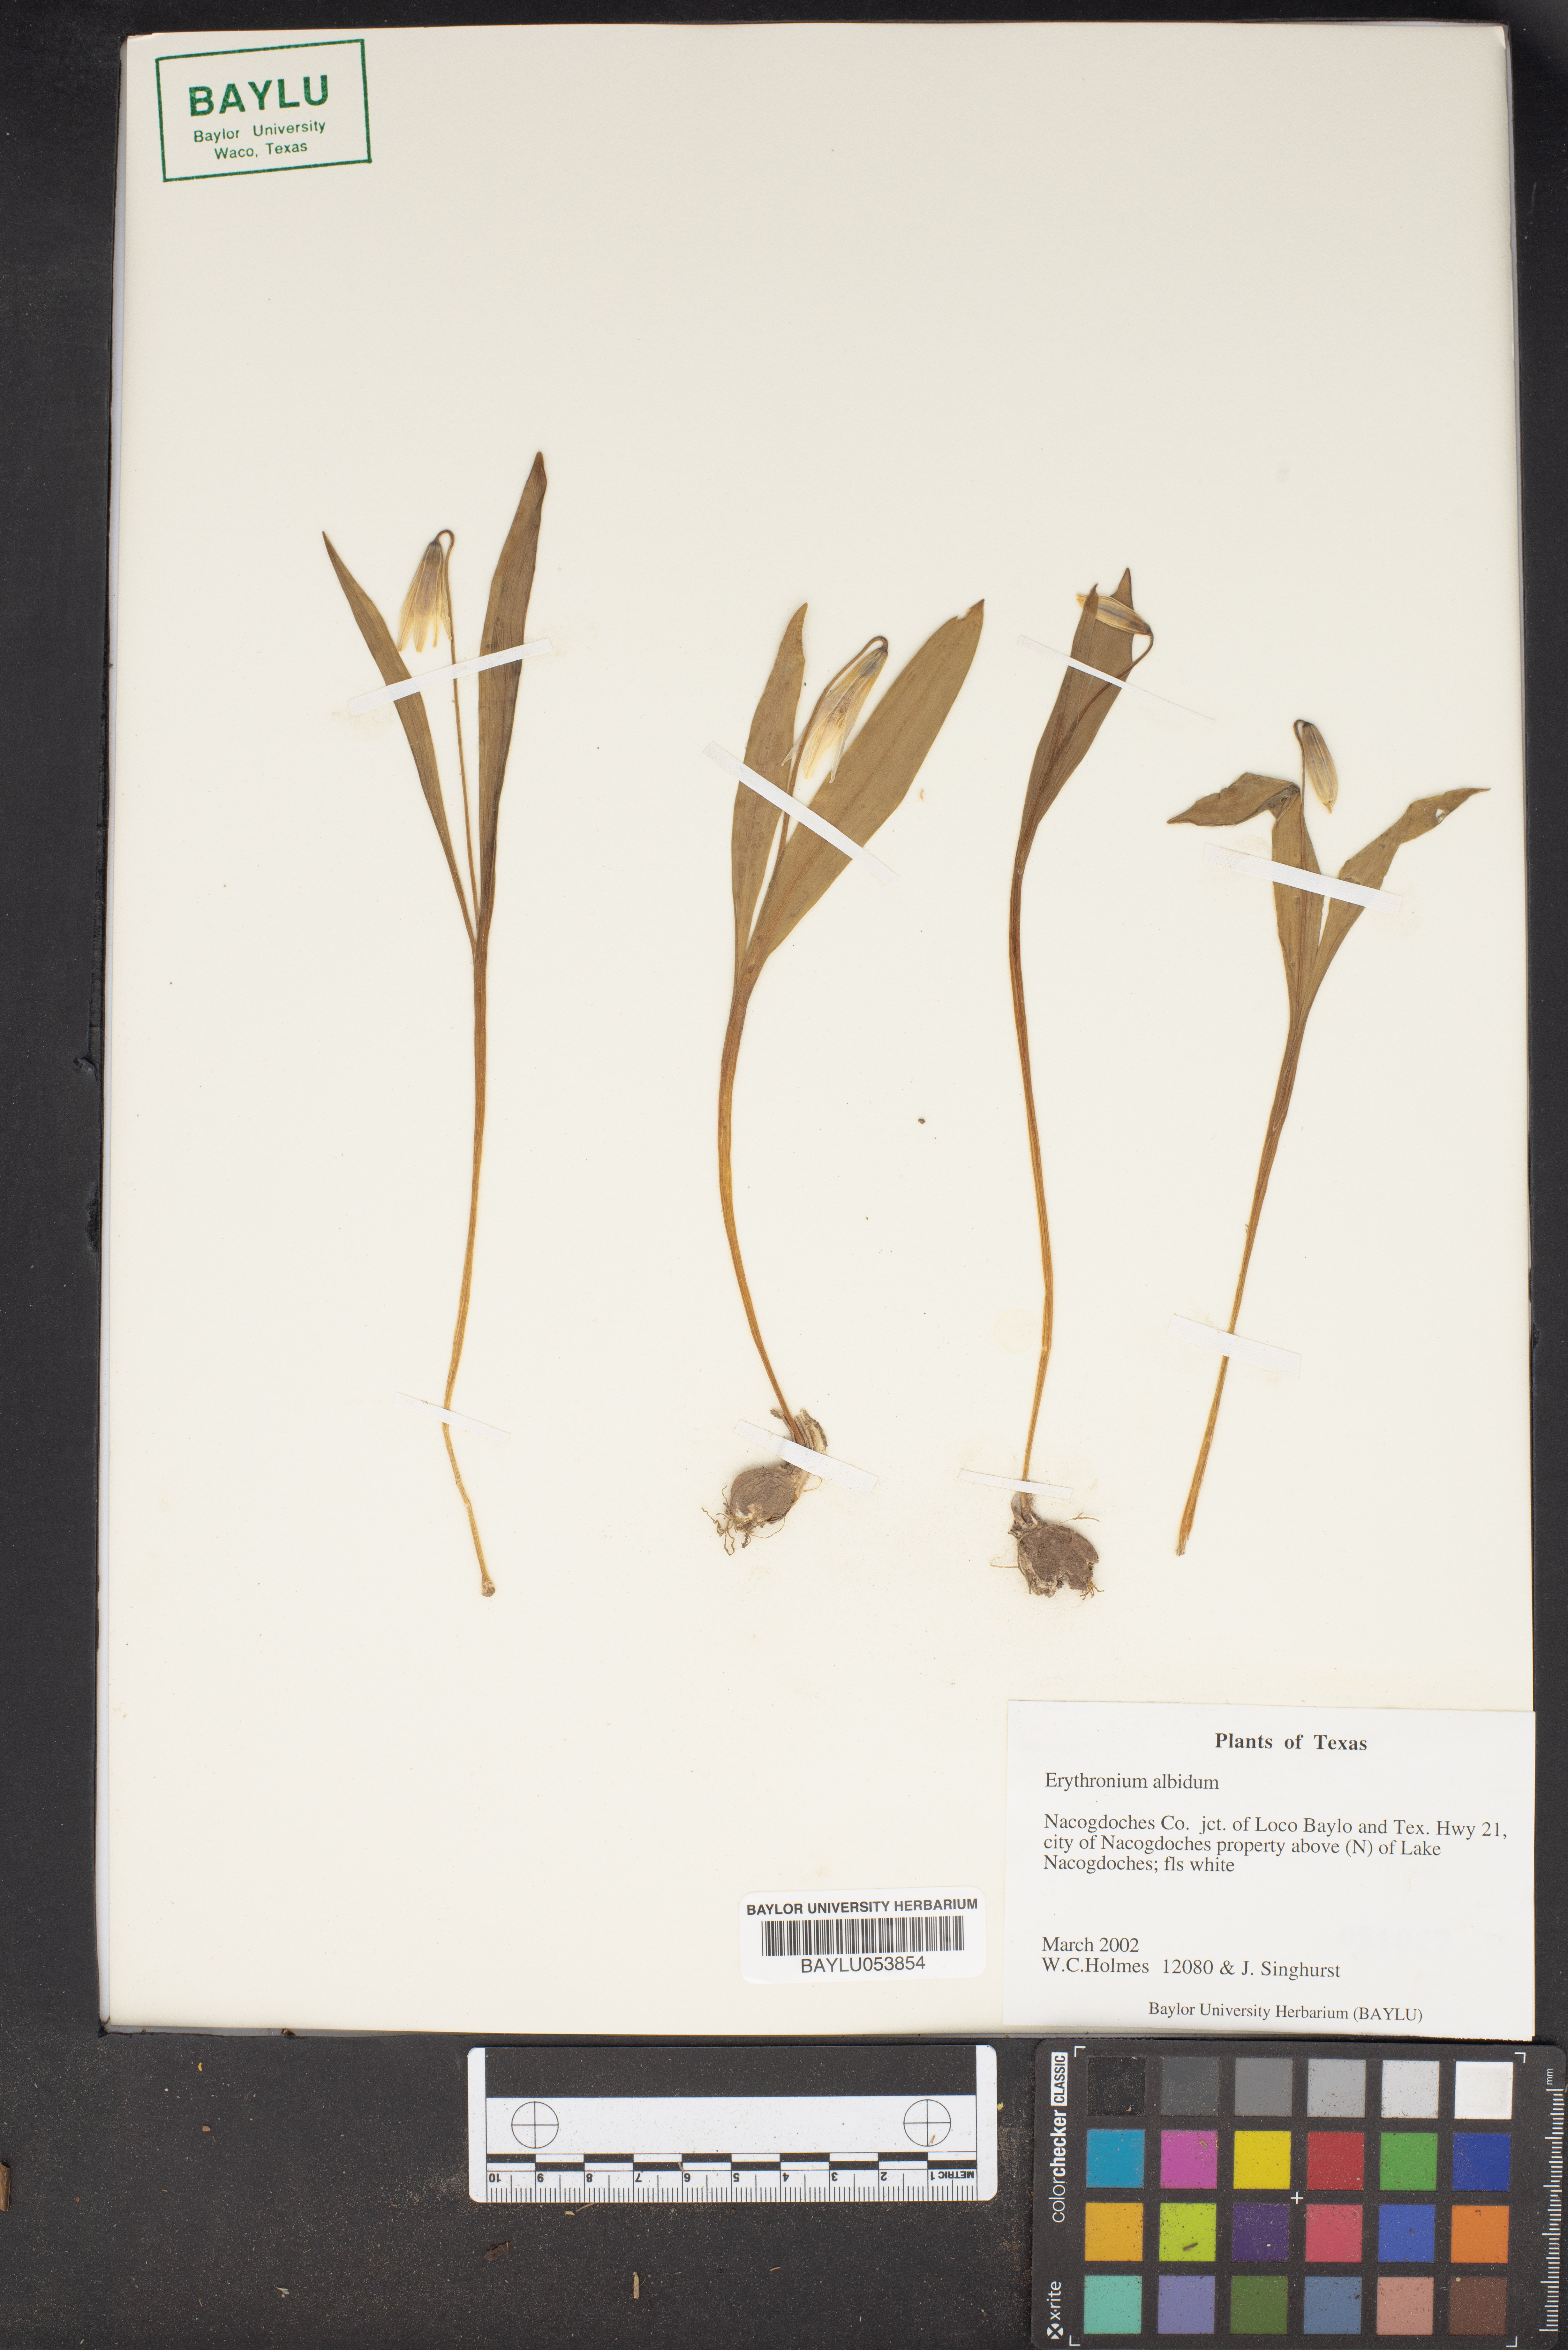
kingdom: Plantae
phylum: Tracheophyta
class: Liliopsida
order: Liliales
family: Liliaceae
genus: Erythronium
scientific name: Erythronium albidum
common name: White trout-lily
